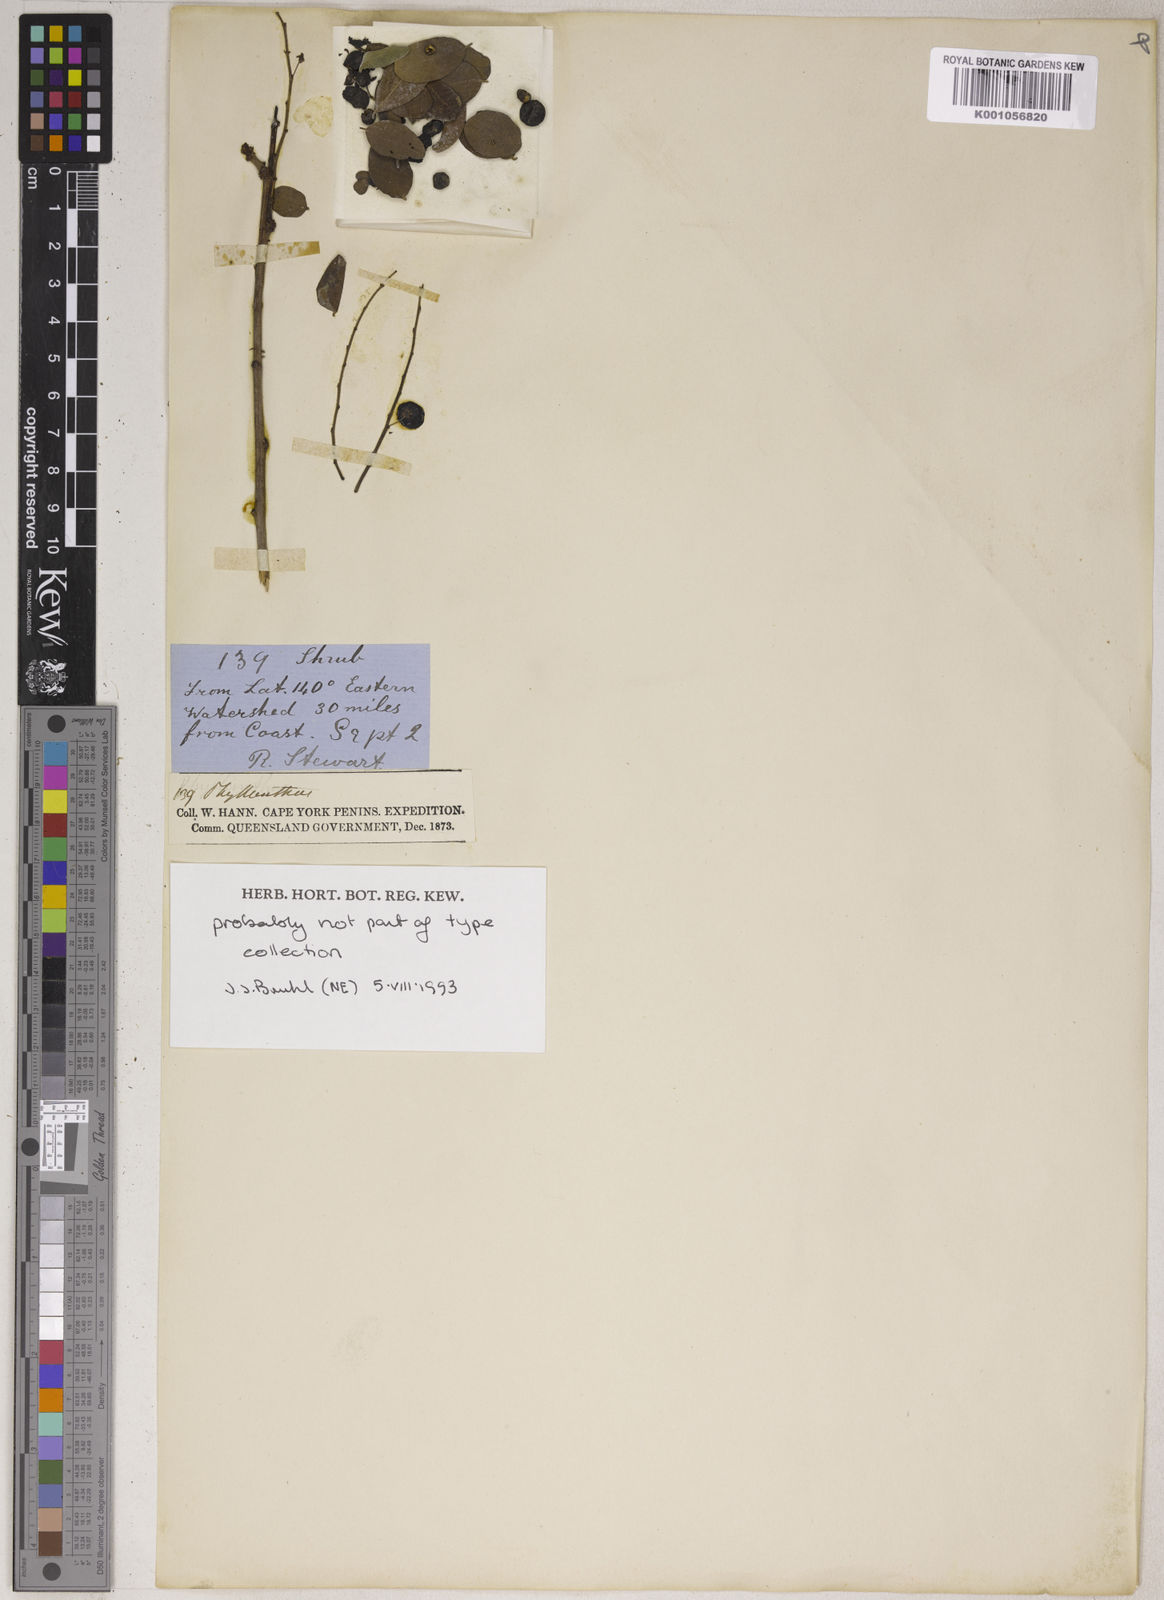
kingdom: Plantae
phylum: Tracheophyta
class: Magnoliopsida
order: Malpighiales
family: Phyllanthaceae
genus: Phyllanthus
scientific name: Phyllanthus
